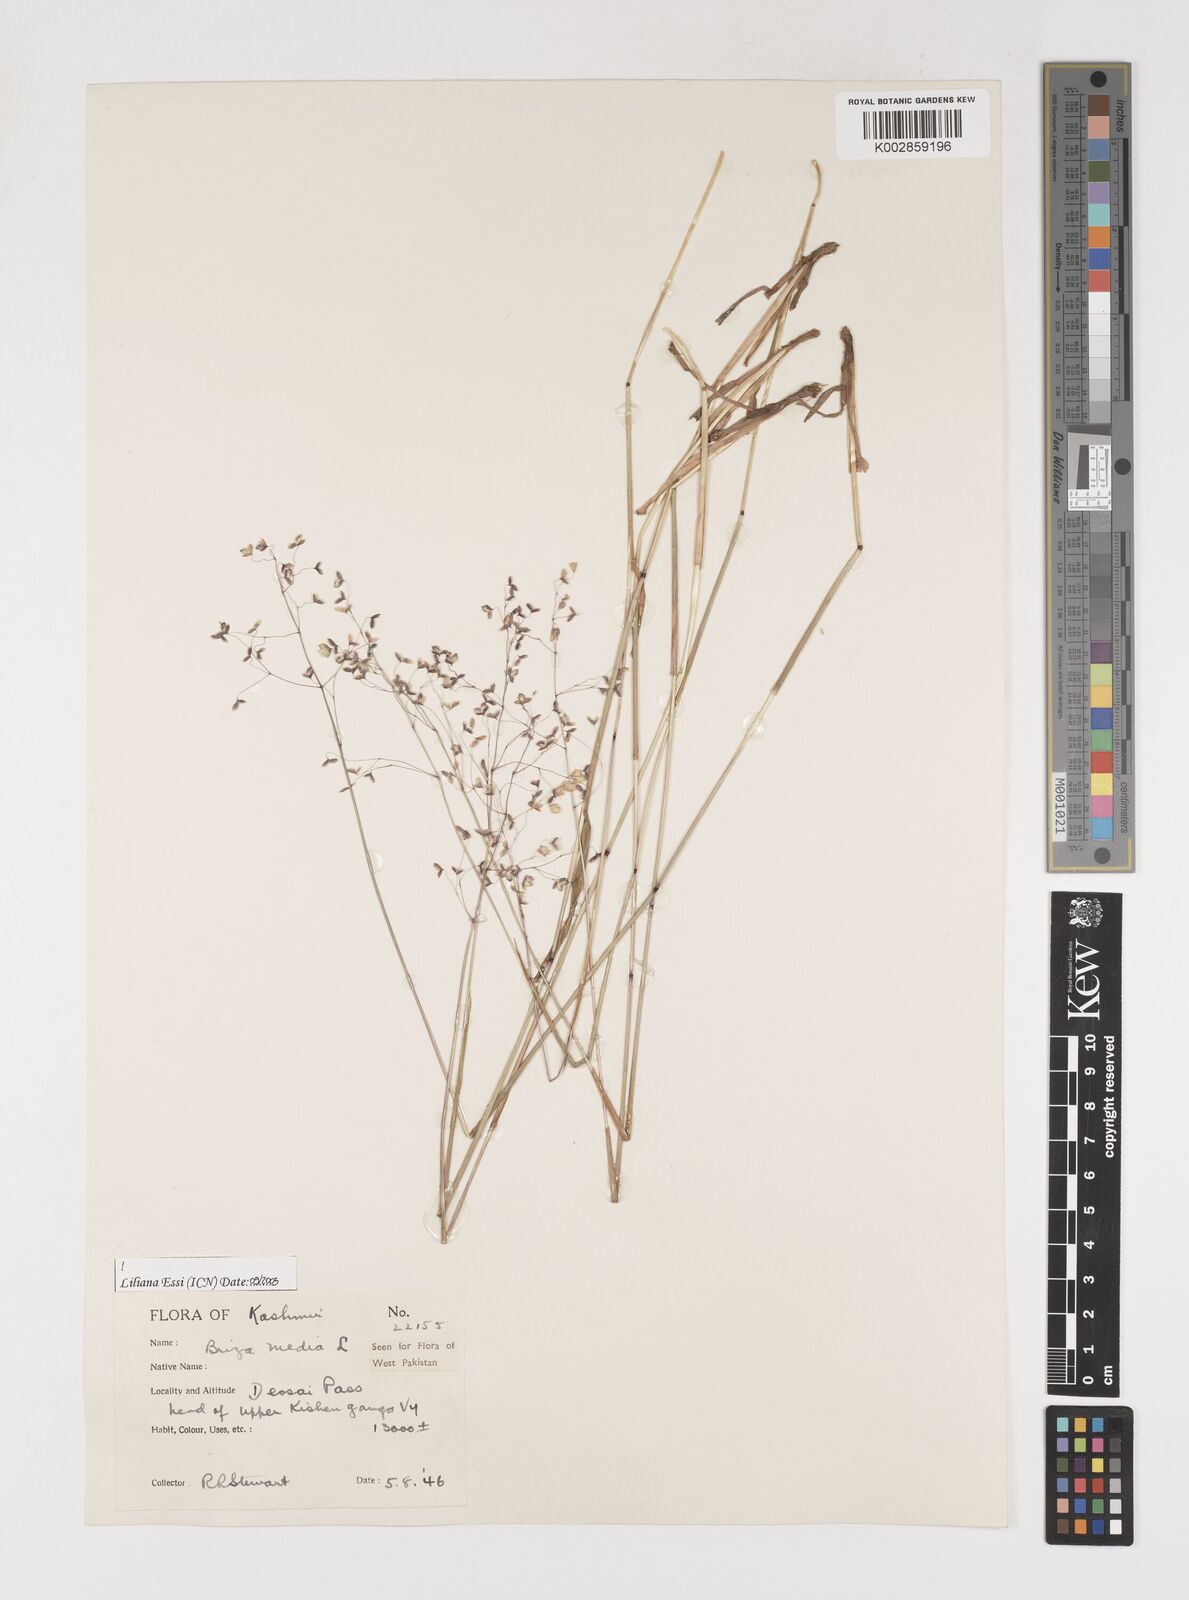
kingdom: Plantae
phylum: Tracheophyta
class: Liliopsida
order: Poales
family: Poaceae
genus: Briza
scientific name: Briza media
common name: Quaking grass
